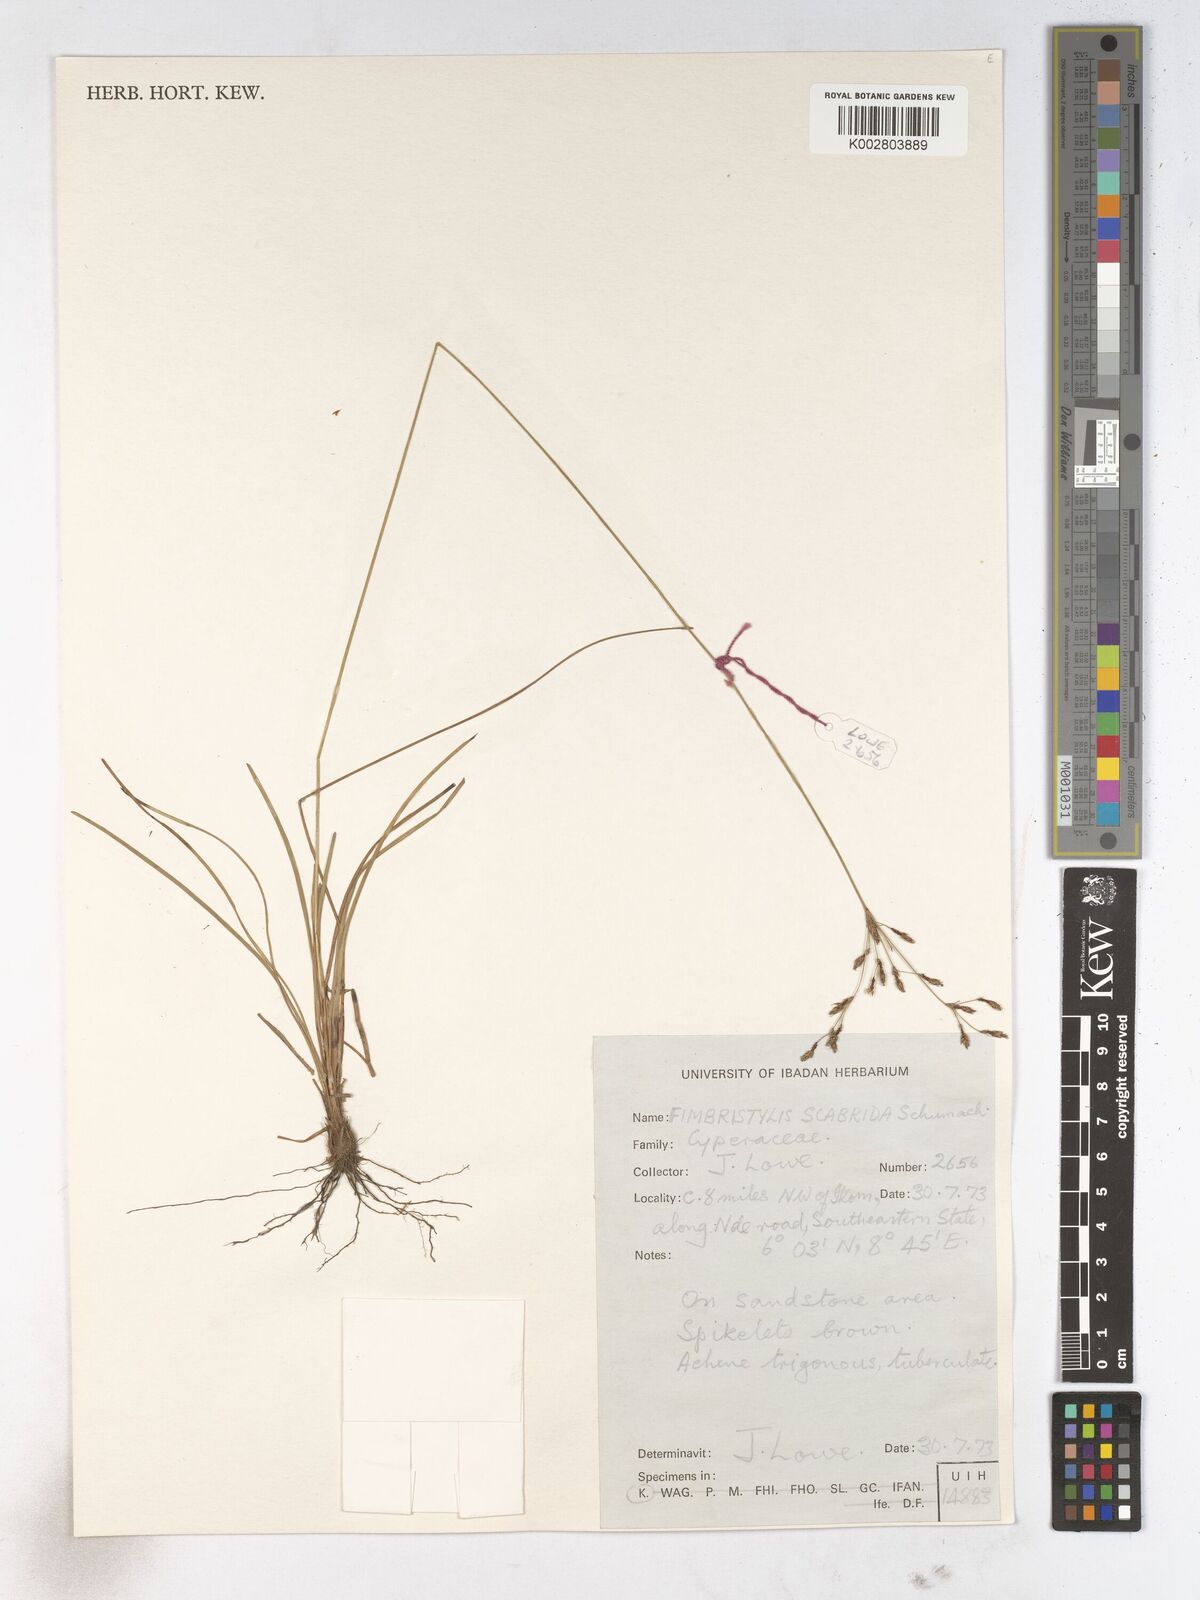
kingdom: Plantae
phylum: Tracheophyta
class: Liliopsida
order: Poales
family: Cyperaceae
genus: Fimbristylis
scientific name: Fimbristylis scabrida
